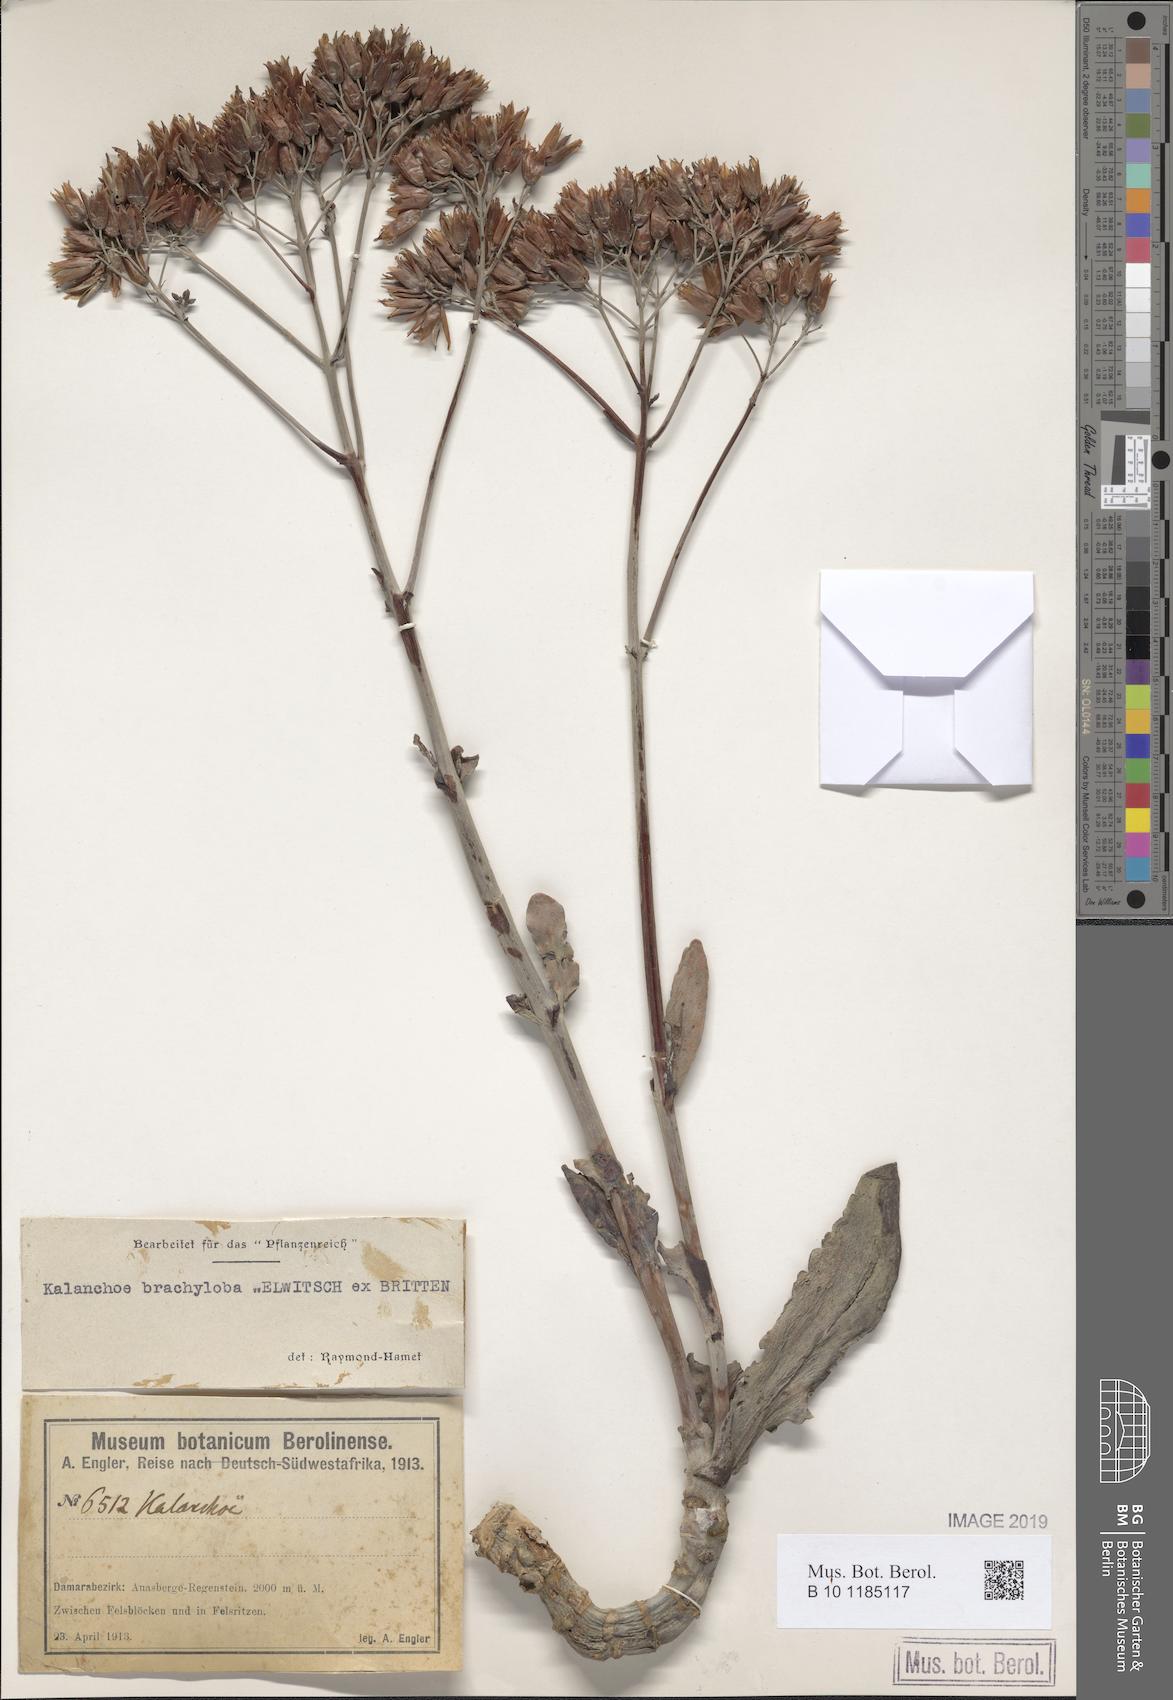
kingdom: Plantae
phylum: Tracheophyta
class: Magnoliopsida
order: Saxifragales
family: Crassulaceae
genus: Kalanchoe
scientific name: Kalanchoe brachyloba
